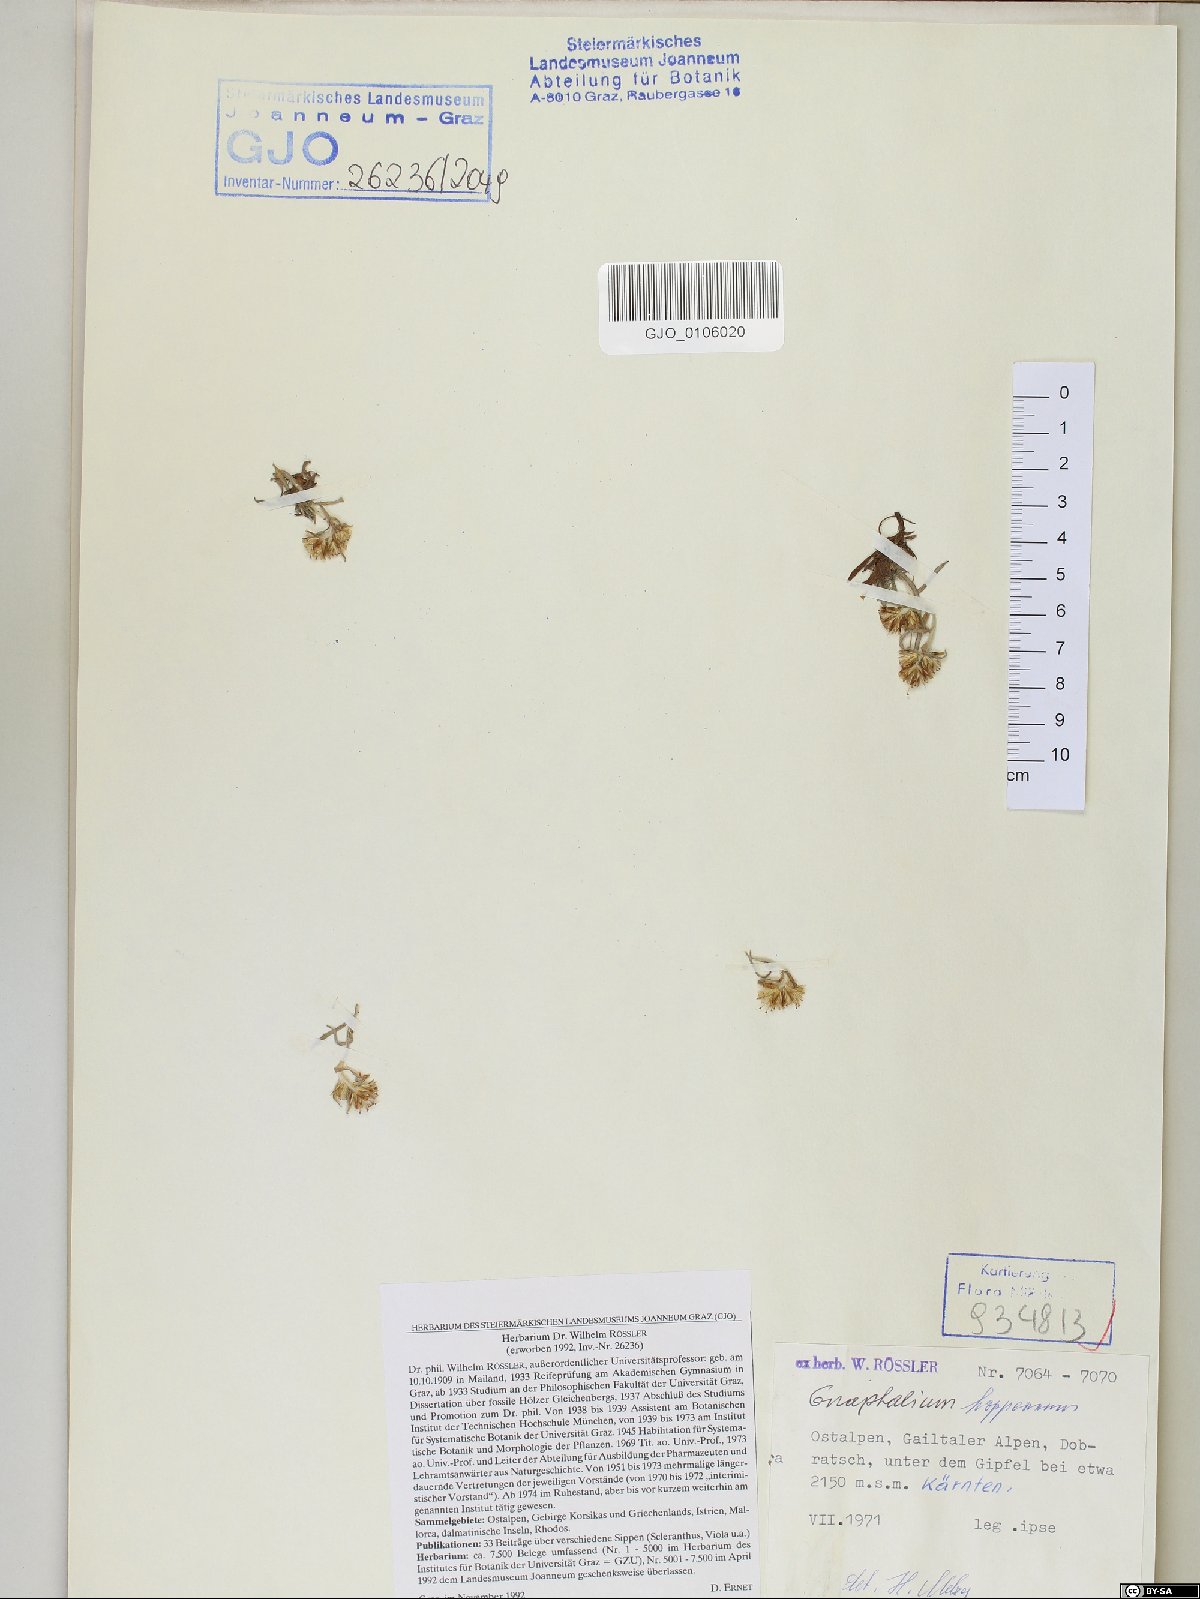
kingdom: Plantae
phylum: Tracheophyta
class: Magnoliopsida
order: Asterales
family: Asteraceae
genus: Omalotheca
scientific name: Omalotheca hoppeana
